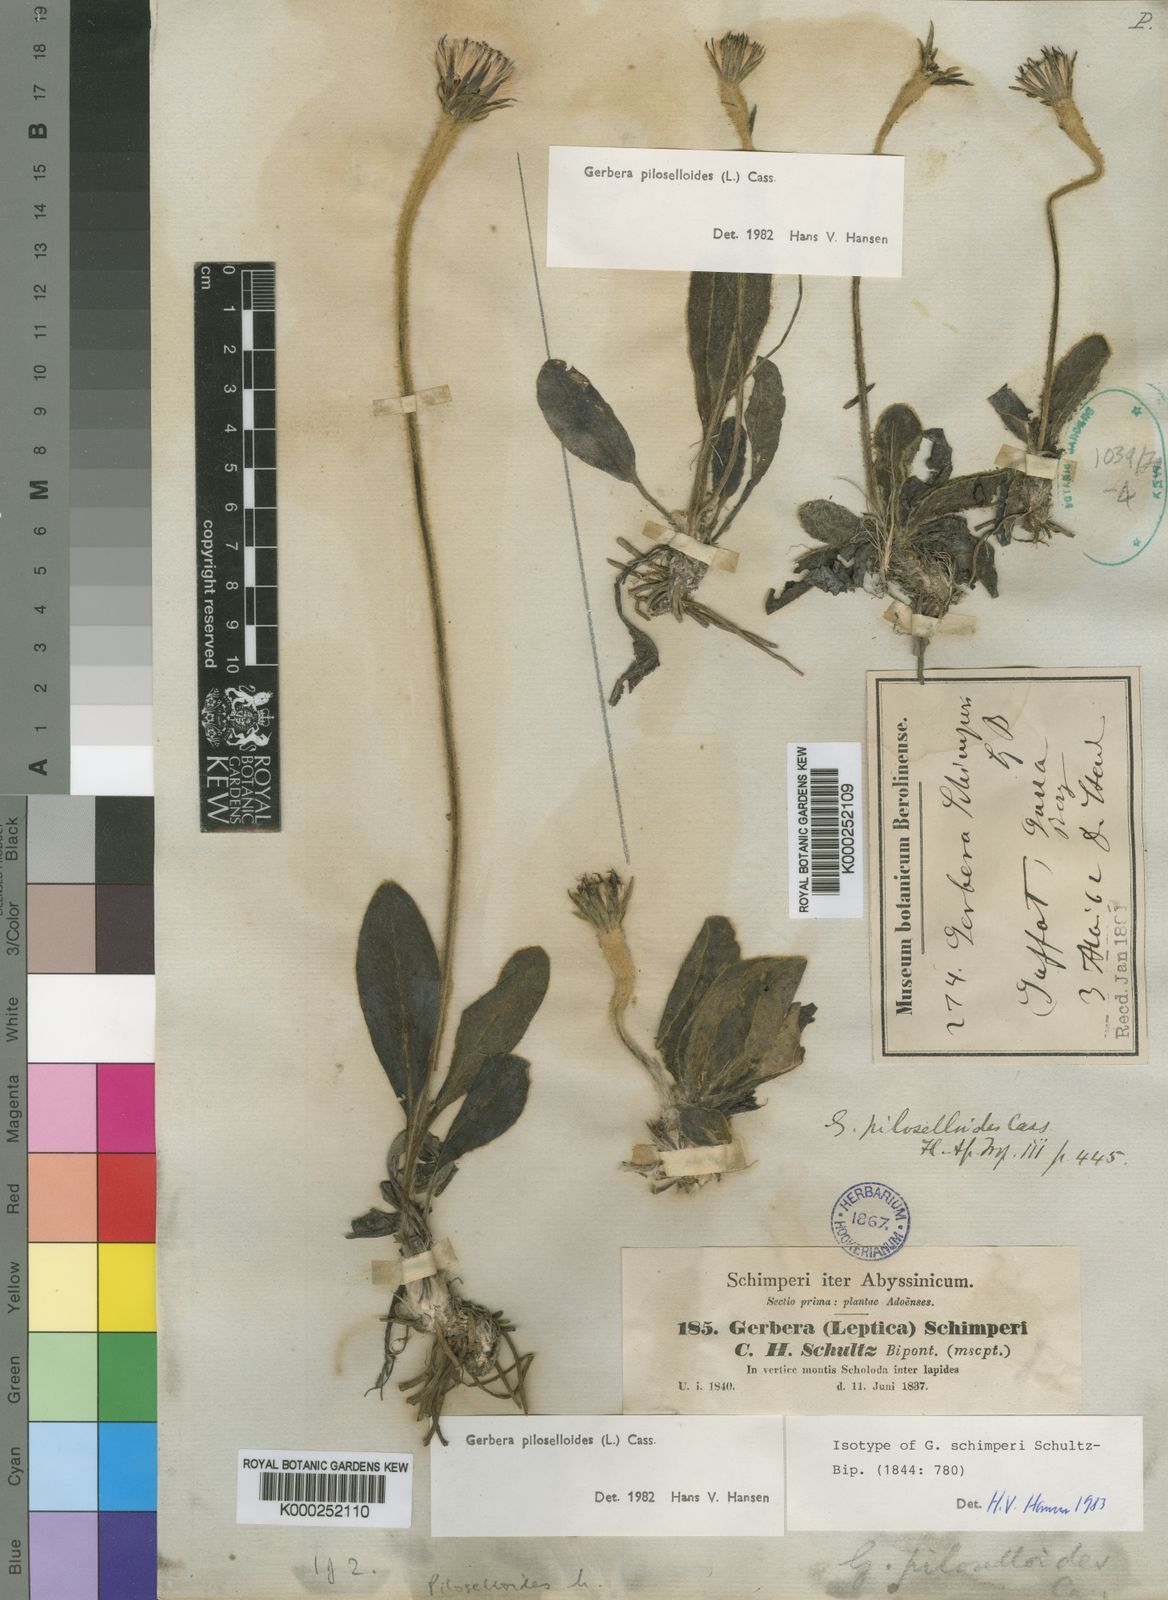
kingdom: Plantae
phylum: Tracheophyta
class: Magnoliopsida
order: Asterales
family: Asteraceae
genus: Piloselloides
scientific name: Piloselloides hirsuta
